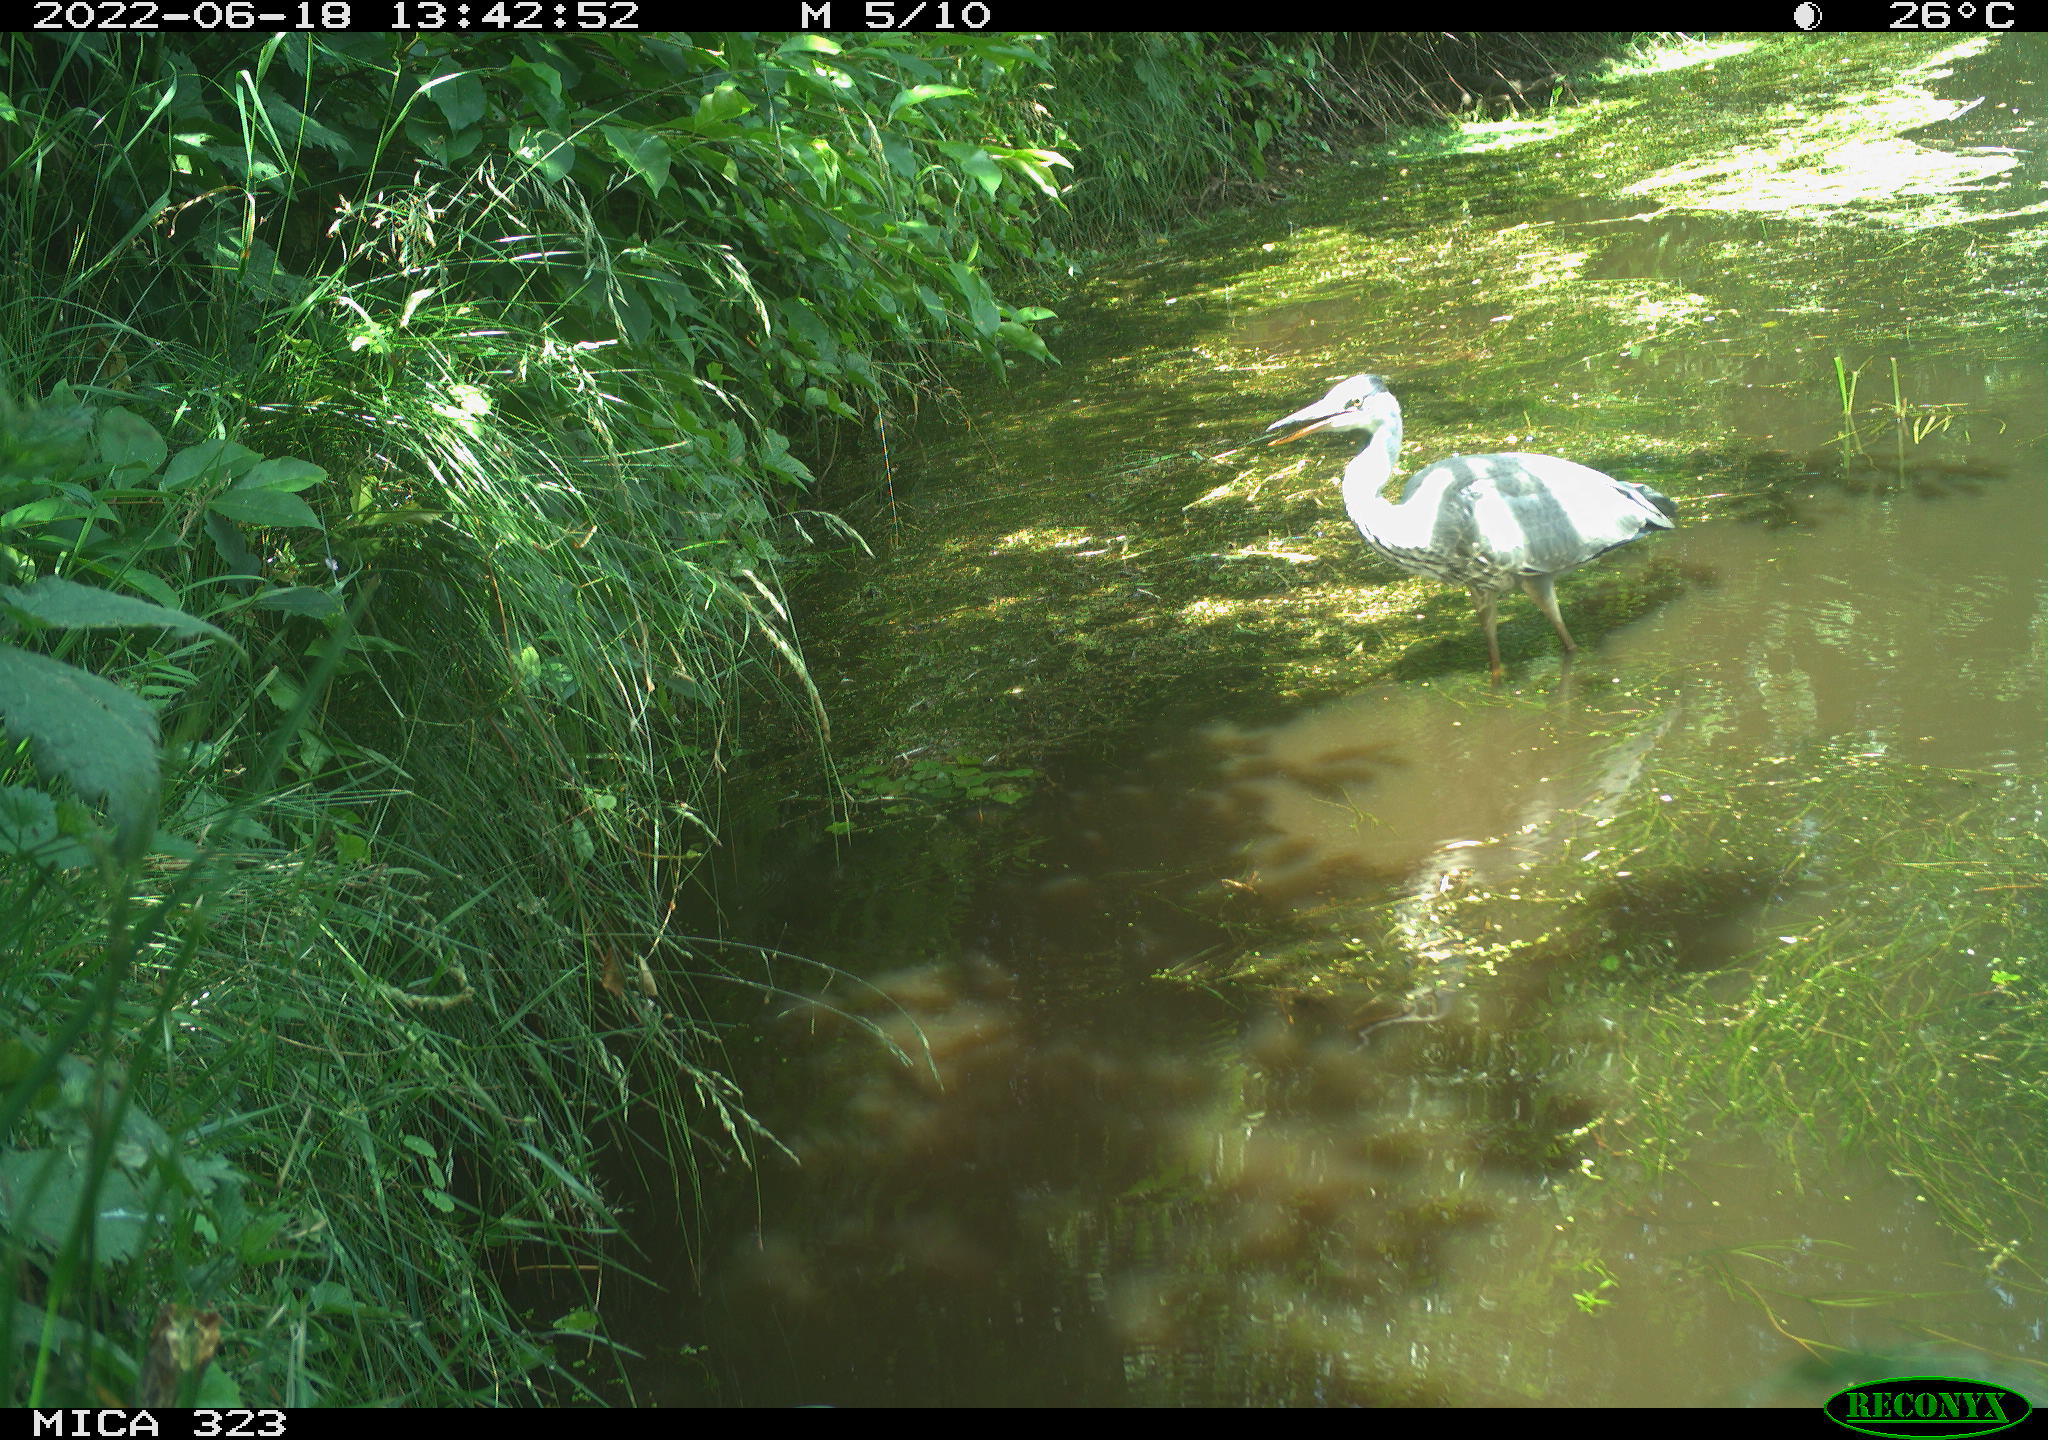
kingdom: Animalia
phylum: Chordata
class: Aves
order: Pelecaniformes
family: Ardeidae
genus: Ardea
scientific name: Ardea cinerea
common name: Grey heron
